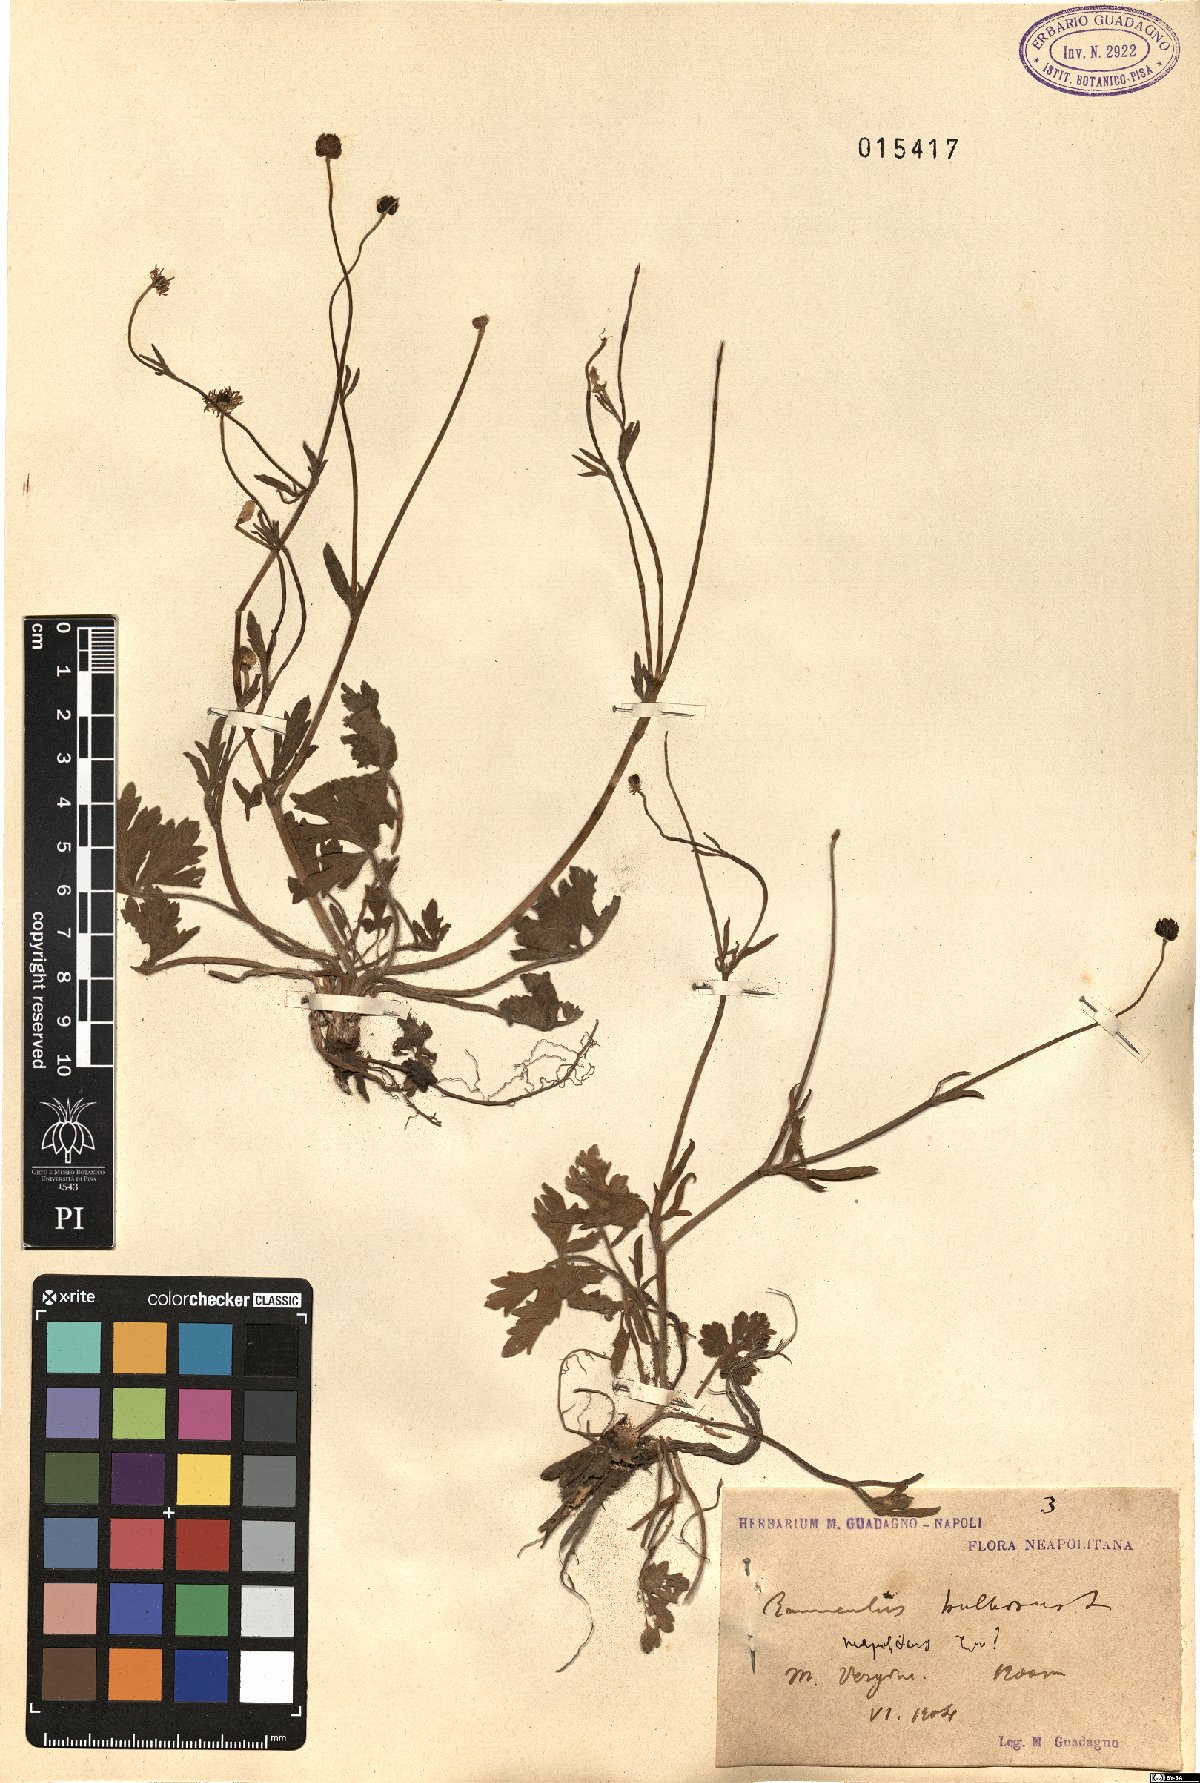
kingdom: Plantae
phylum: Tracheophyta
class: Magnoliopsida
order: Ranunculales
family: Ranunculaceae
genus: Ranunculus
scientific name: Ranunculus neapolitanus
